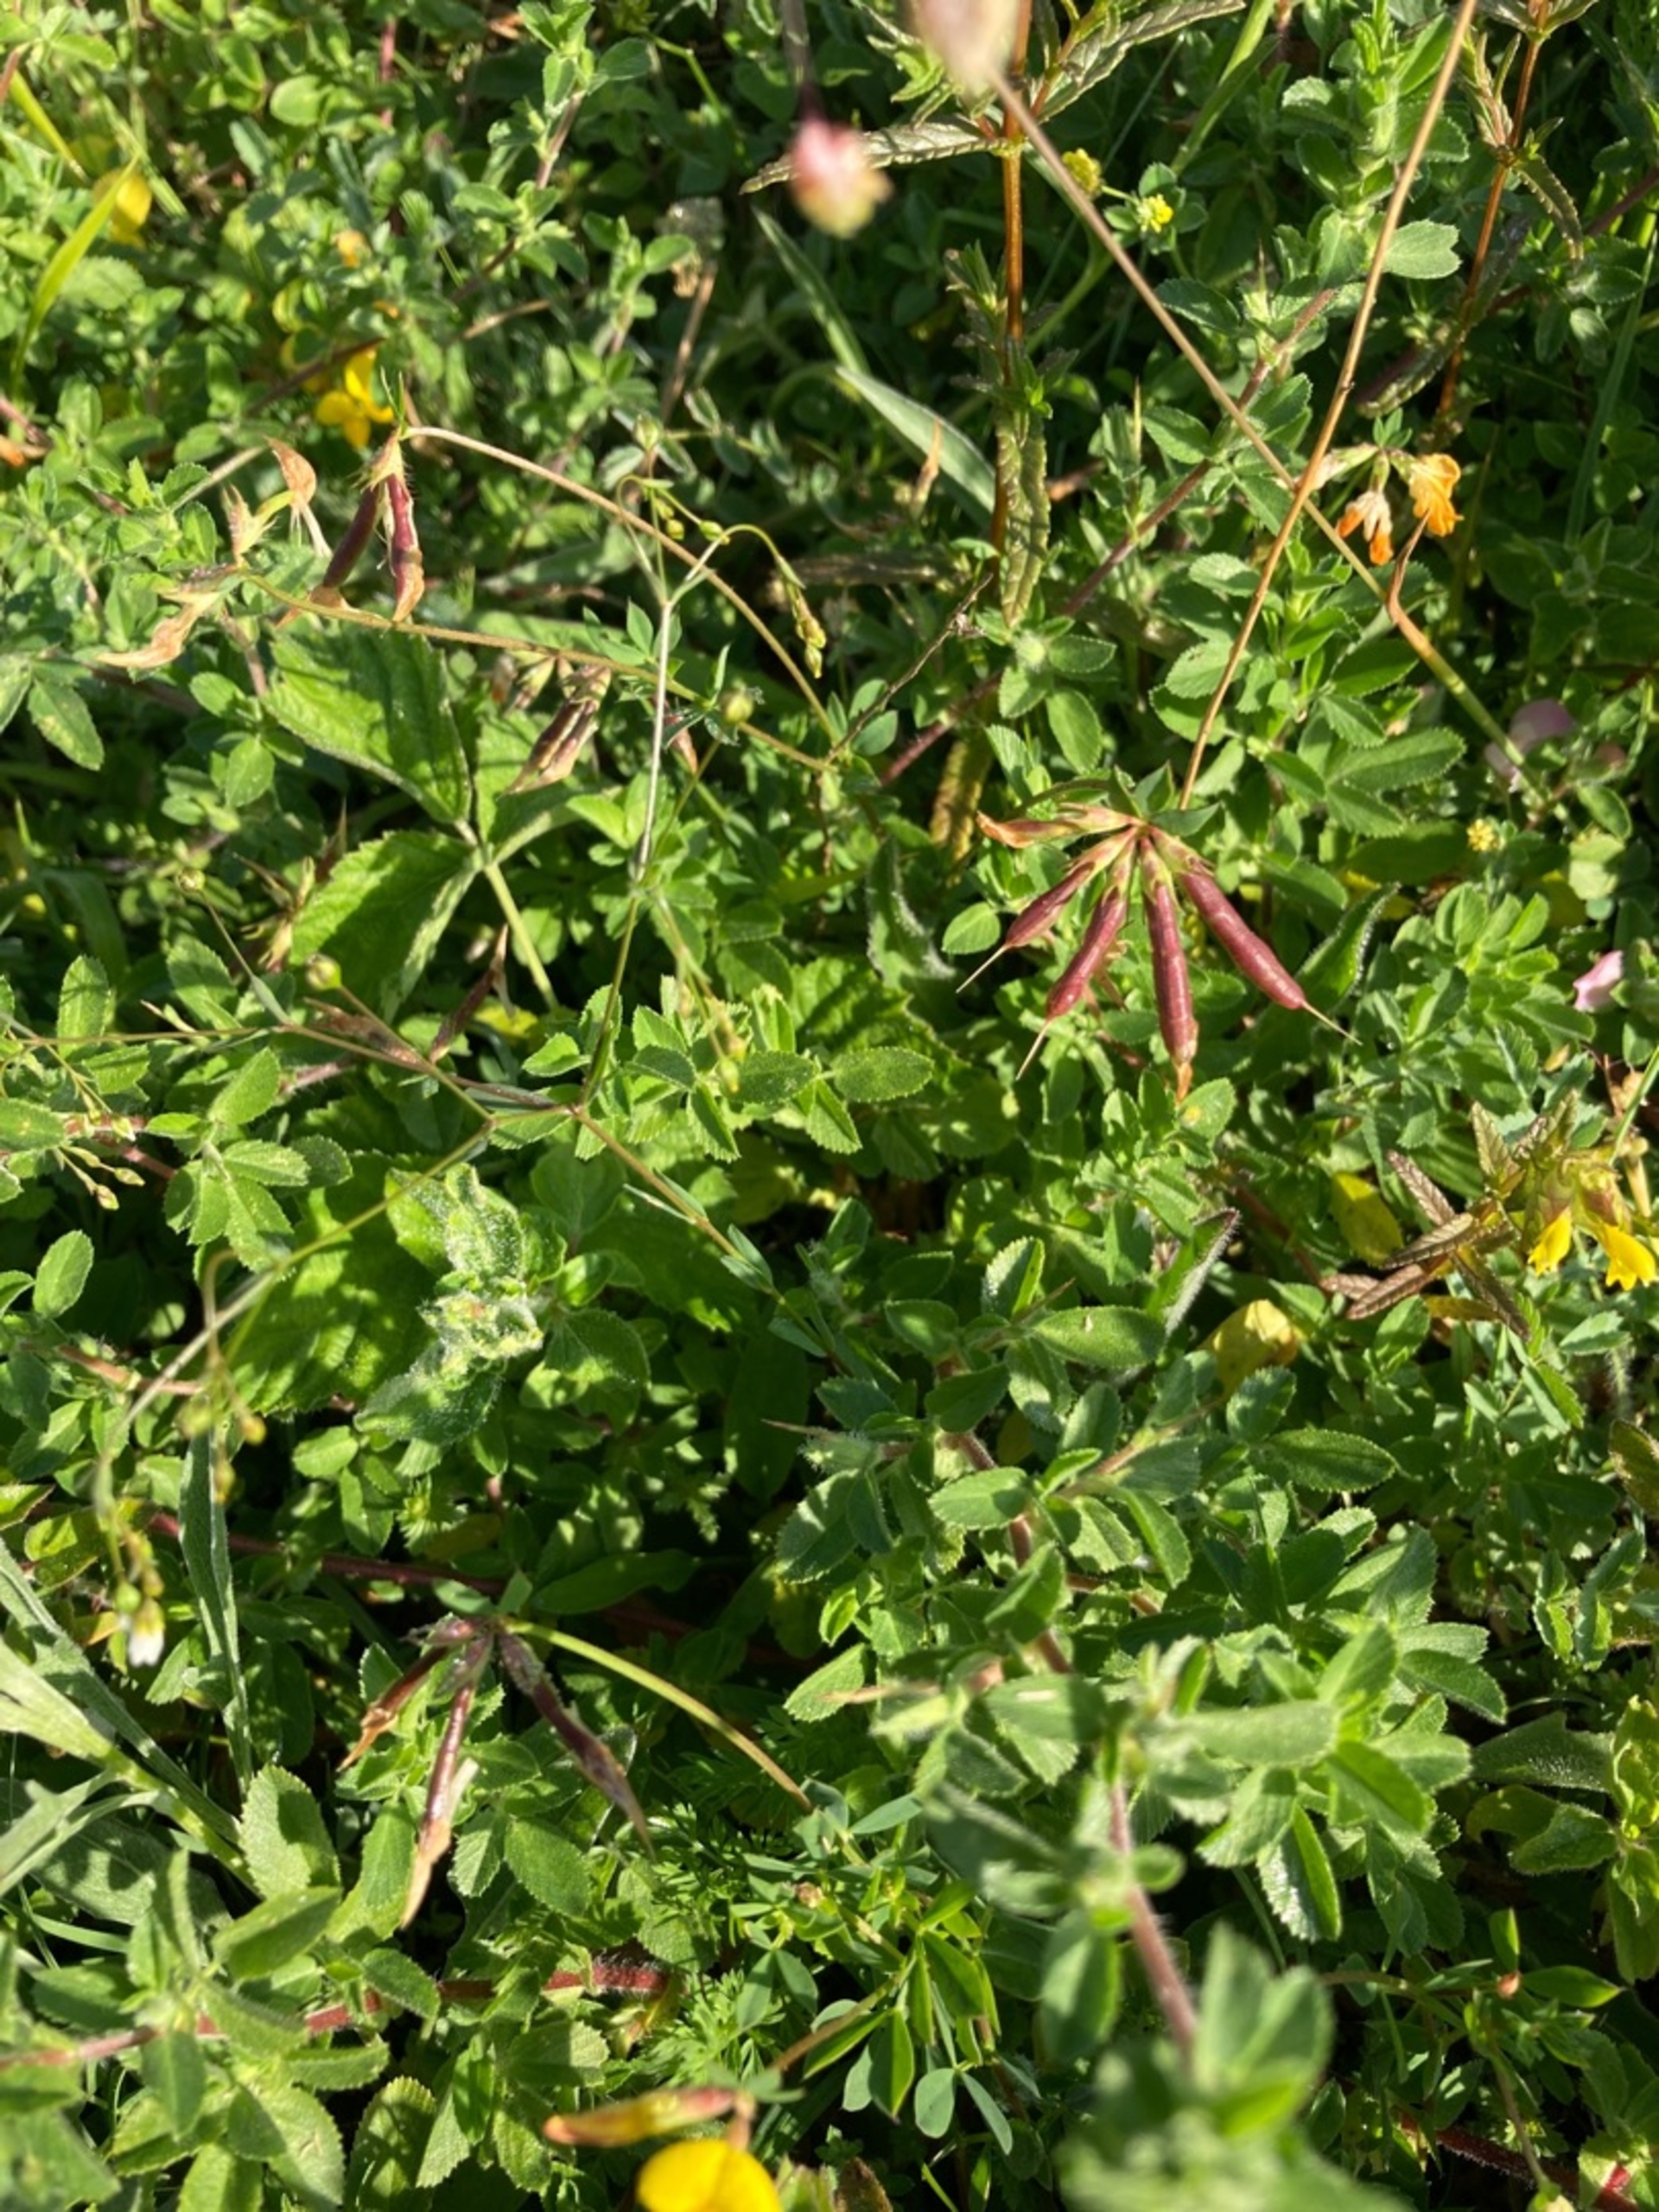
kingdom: Plantae
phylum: Tracheophyta
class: Magnoliopsida
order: Fabales
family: Fabaceae
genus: Lotus
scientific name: Lotus corniculatus
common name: Almindelig kællingetand
